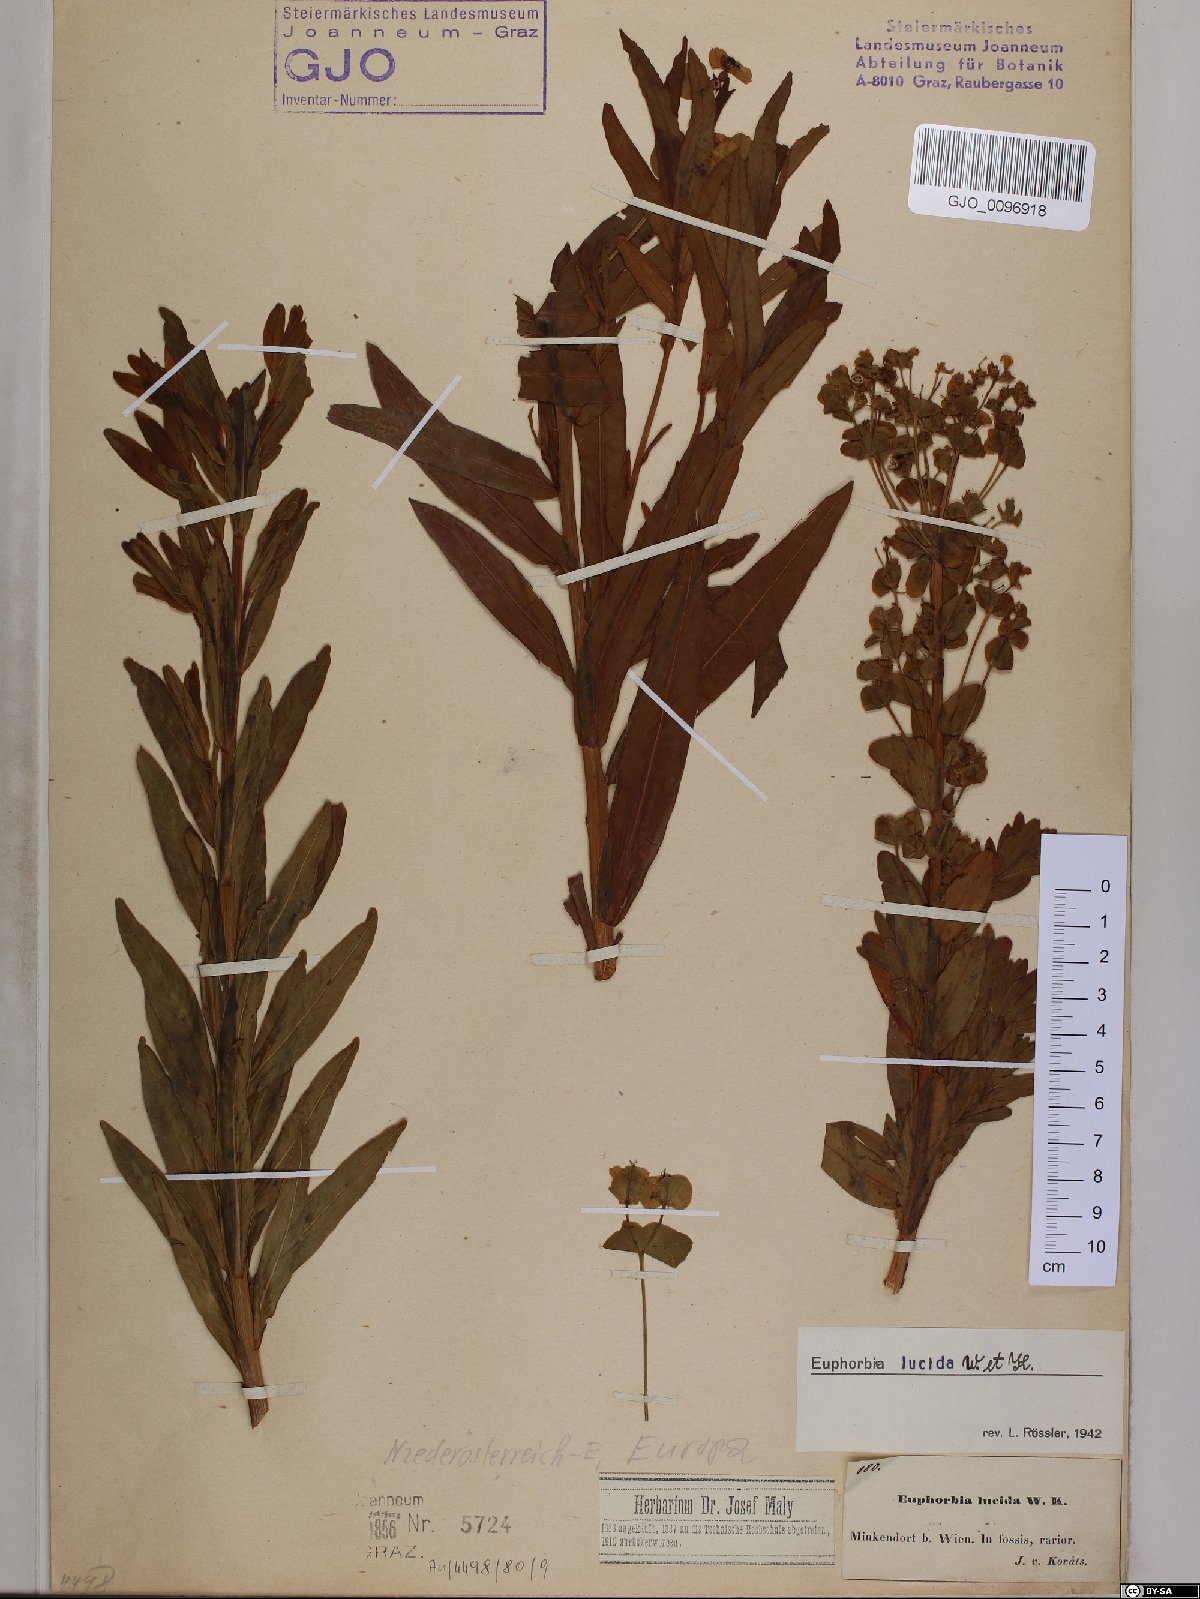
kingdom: Plantae
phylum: Tracheophyta
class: Magnoliopsida
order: Malpighiales
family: Euphorbiaceae
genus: Euphorbia
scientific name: Euphorbia lucida
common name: Shining spurge
